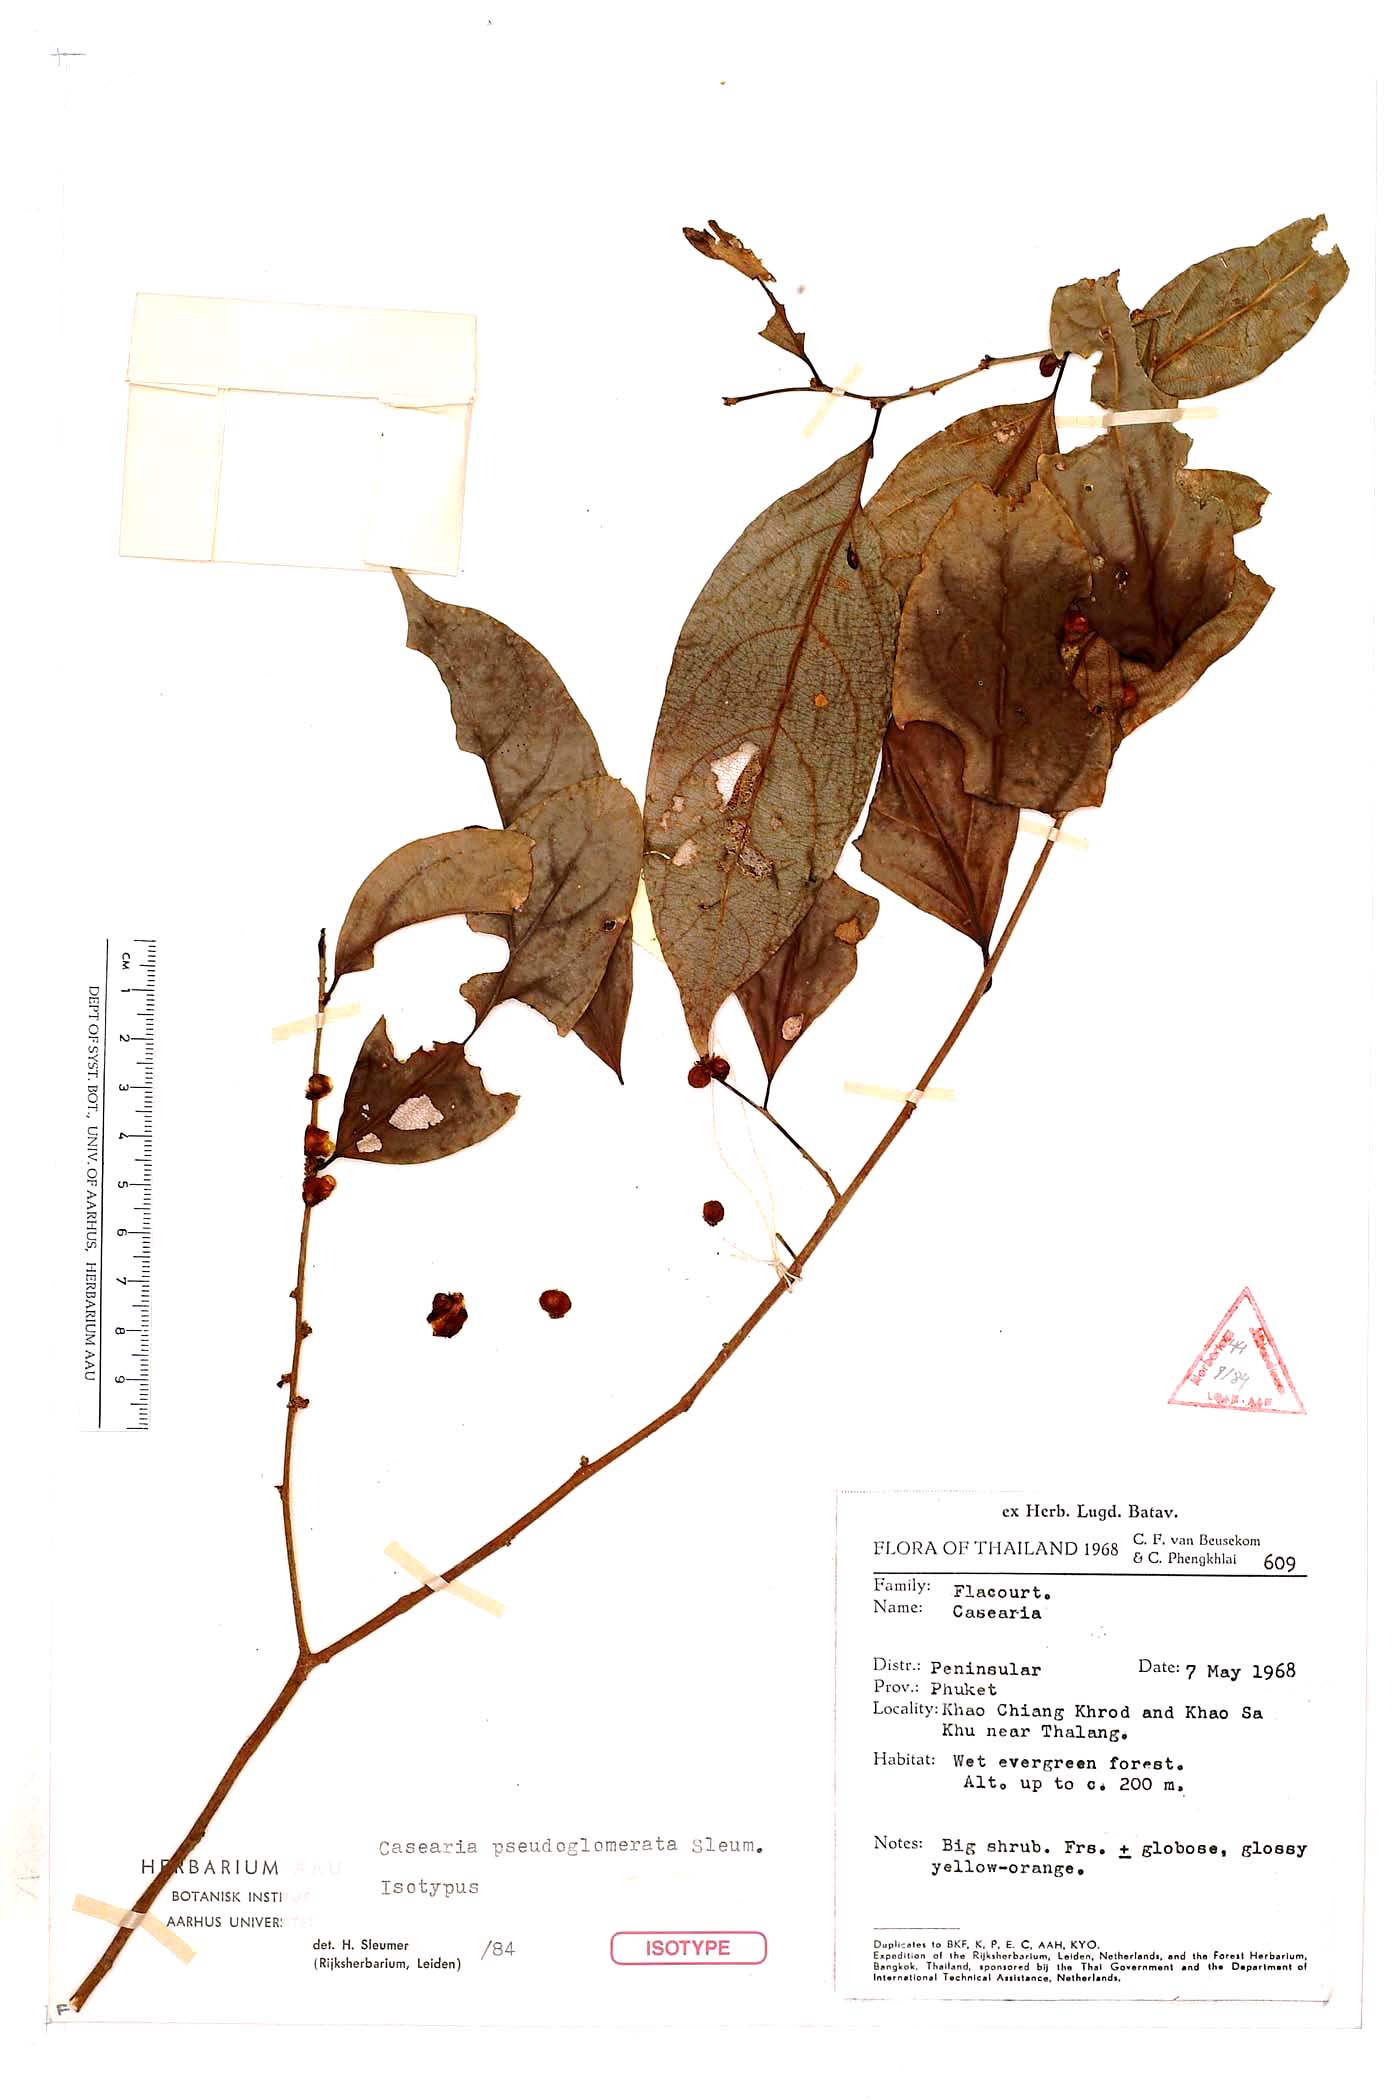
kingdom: Plantae
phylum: Tracheophyta
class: Magnoliopsida
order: Malpighiales
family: Salicaceae
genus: Casearia
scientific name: Casearia pseudoglomerata
